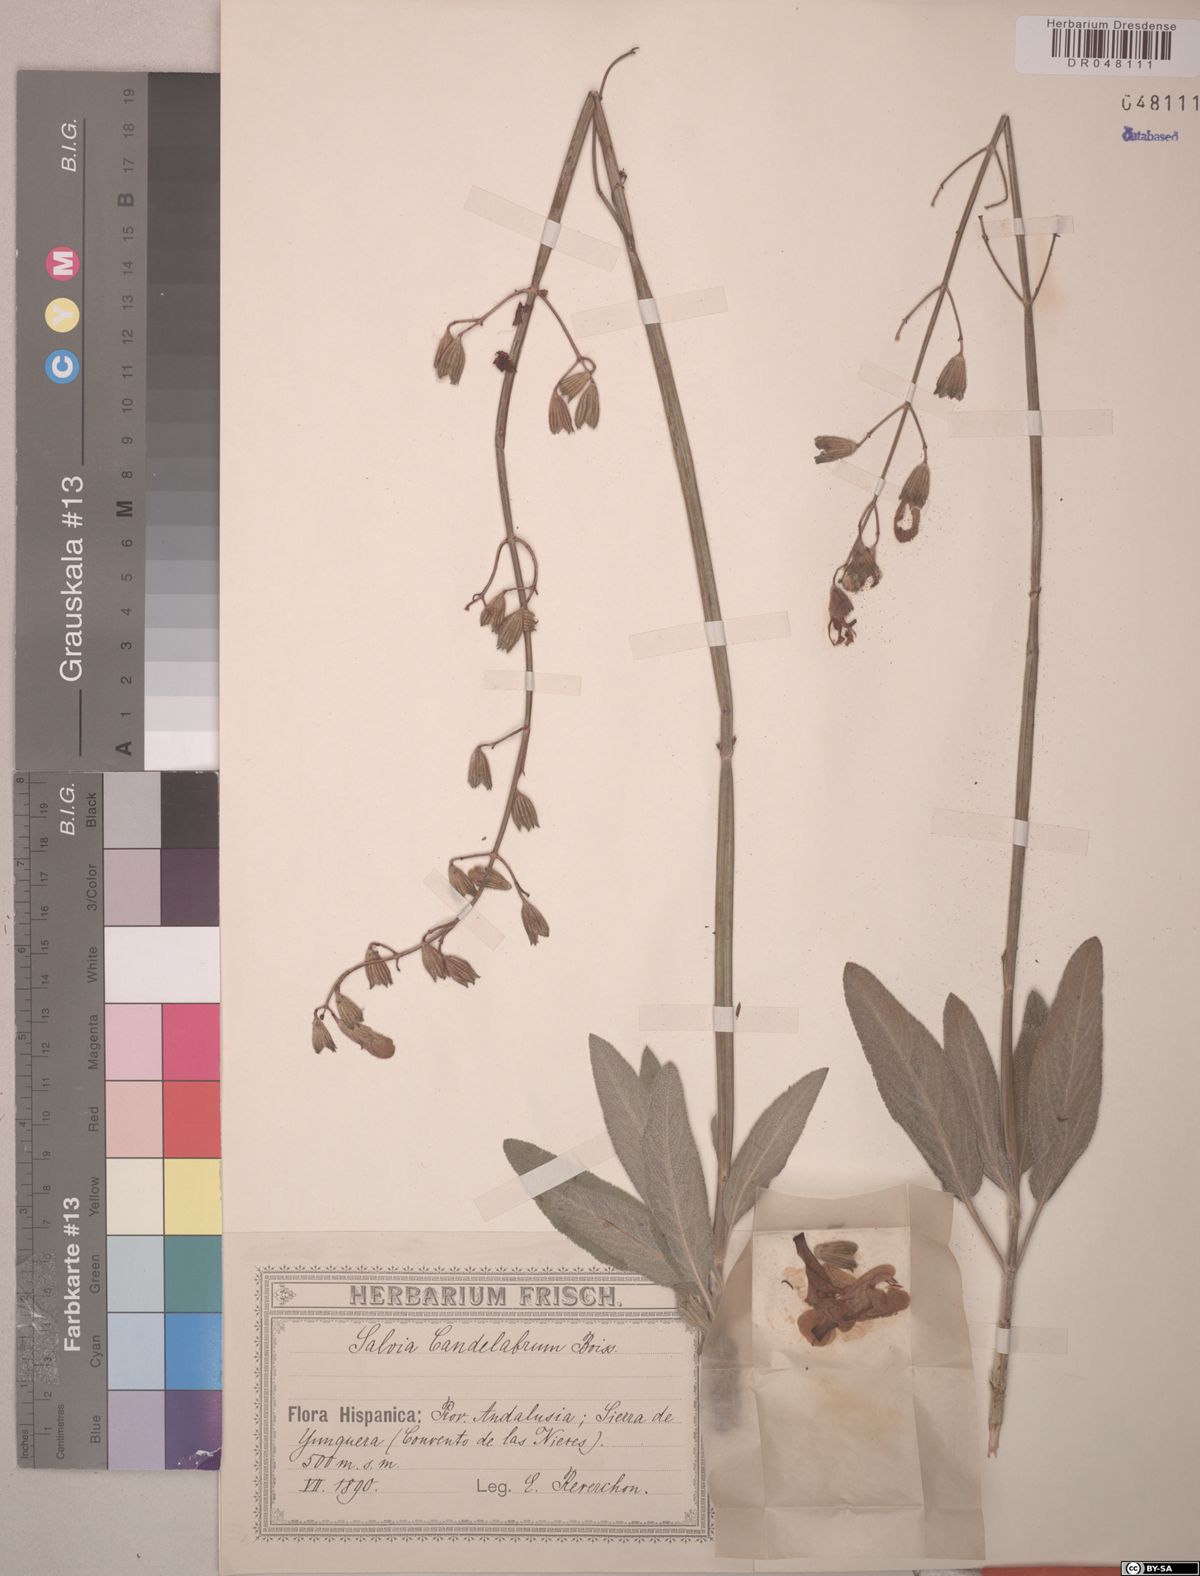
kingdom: Plantae
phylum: Tracheophyta
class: Magnoliopsida
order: Lamiales
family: Lamiaceae
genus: Salvia
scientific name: Salvia candelabrum
